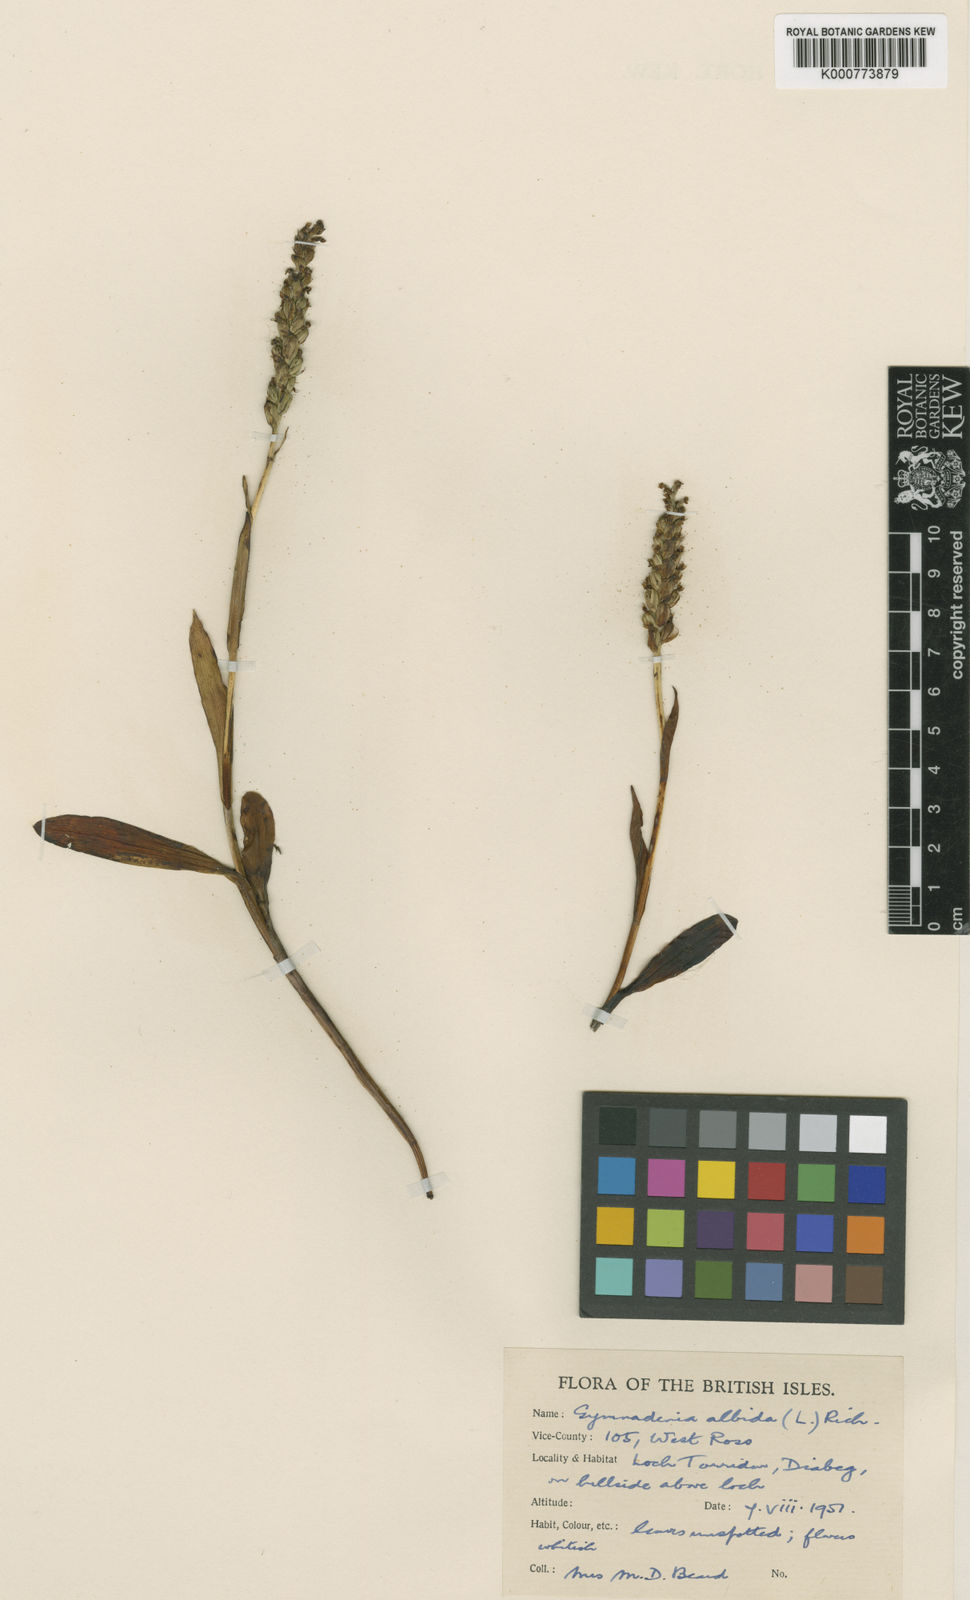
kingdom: Plantae
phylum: Tracheophyta
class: Liliopsida
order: Asparagales
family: Orchidaceae
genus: Pseudorchis
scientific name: Pseudorchis
